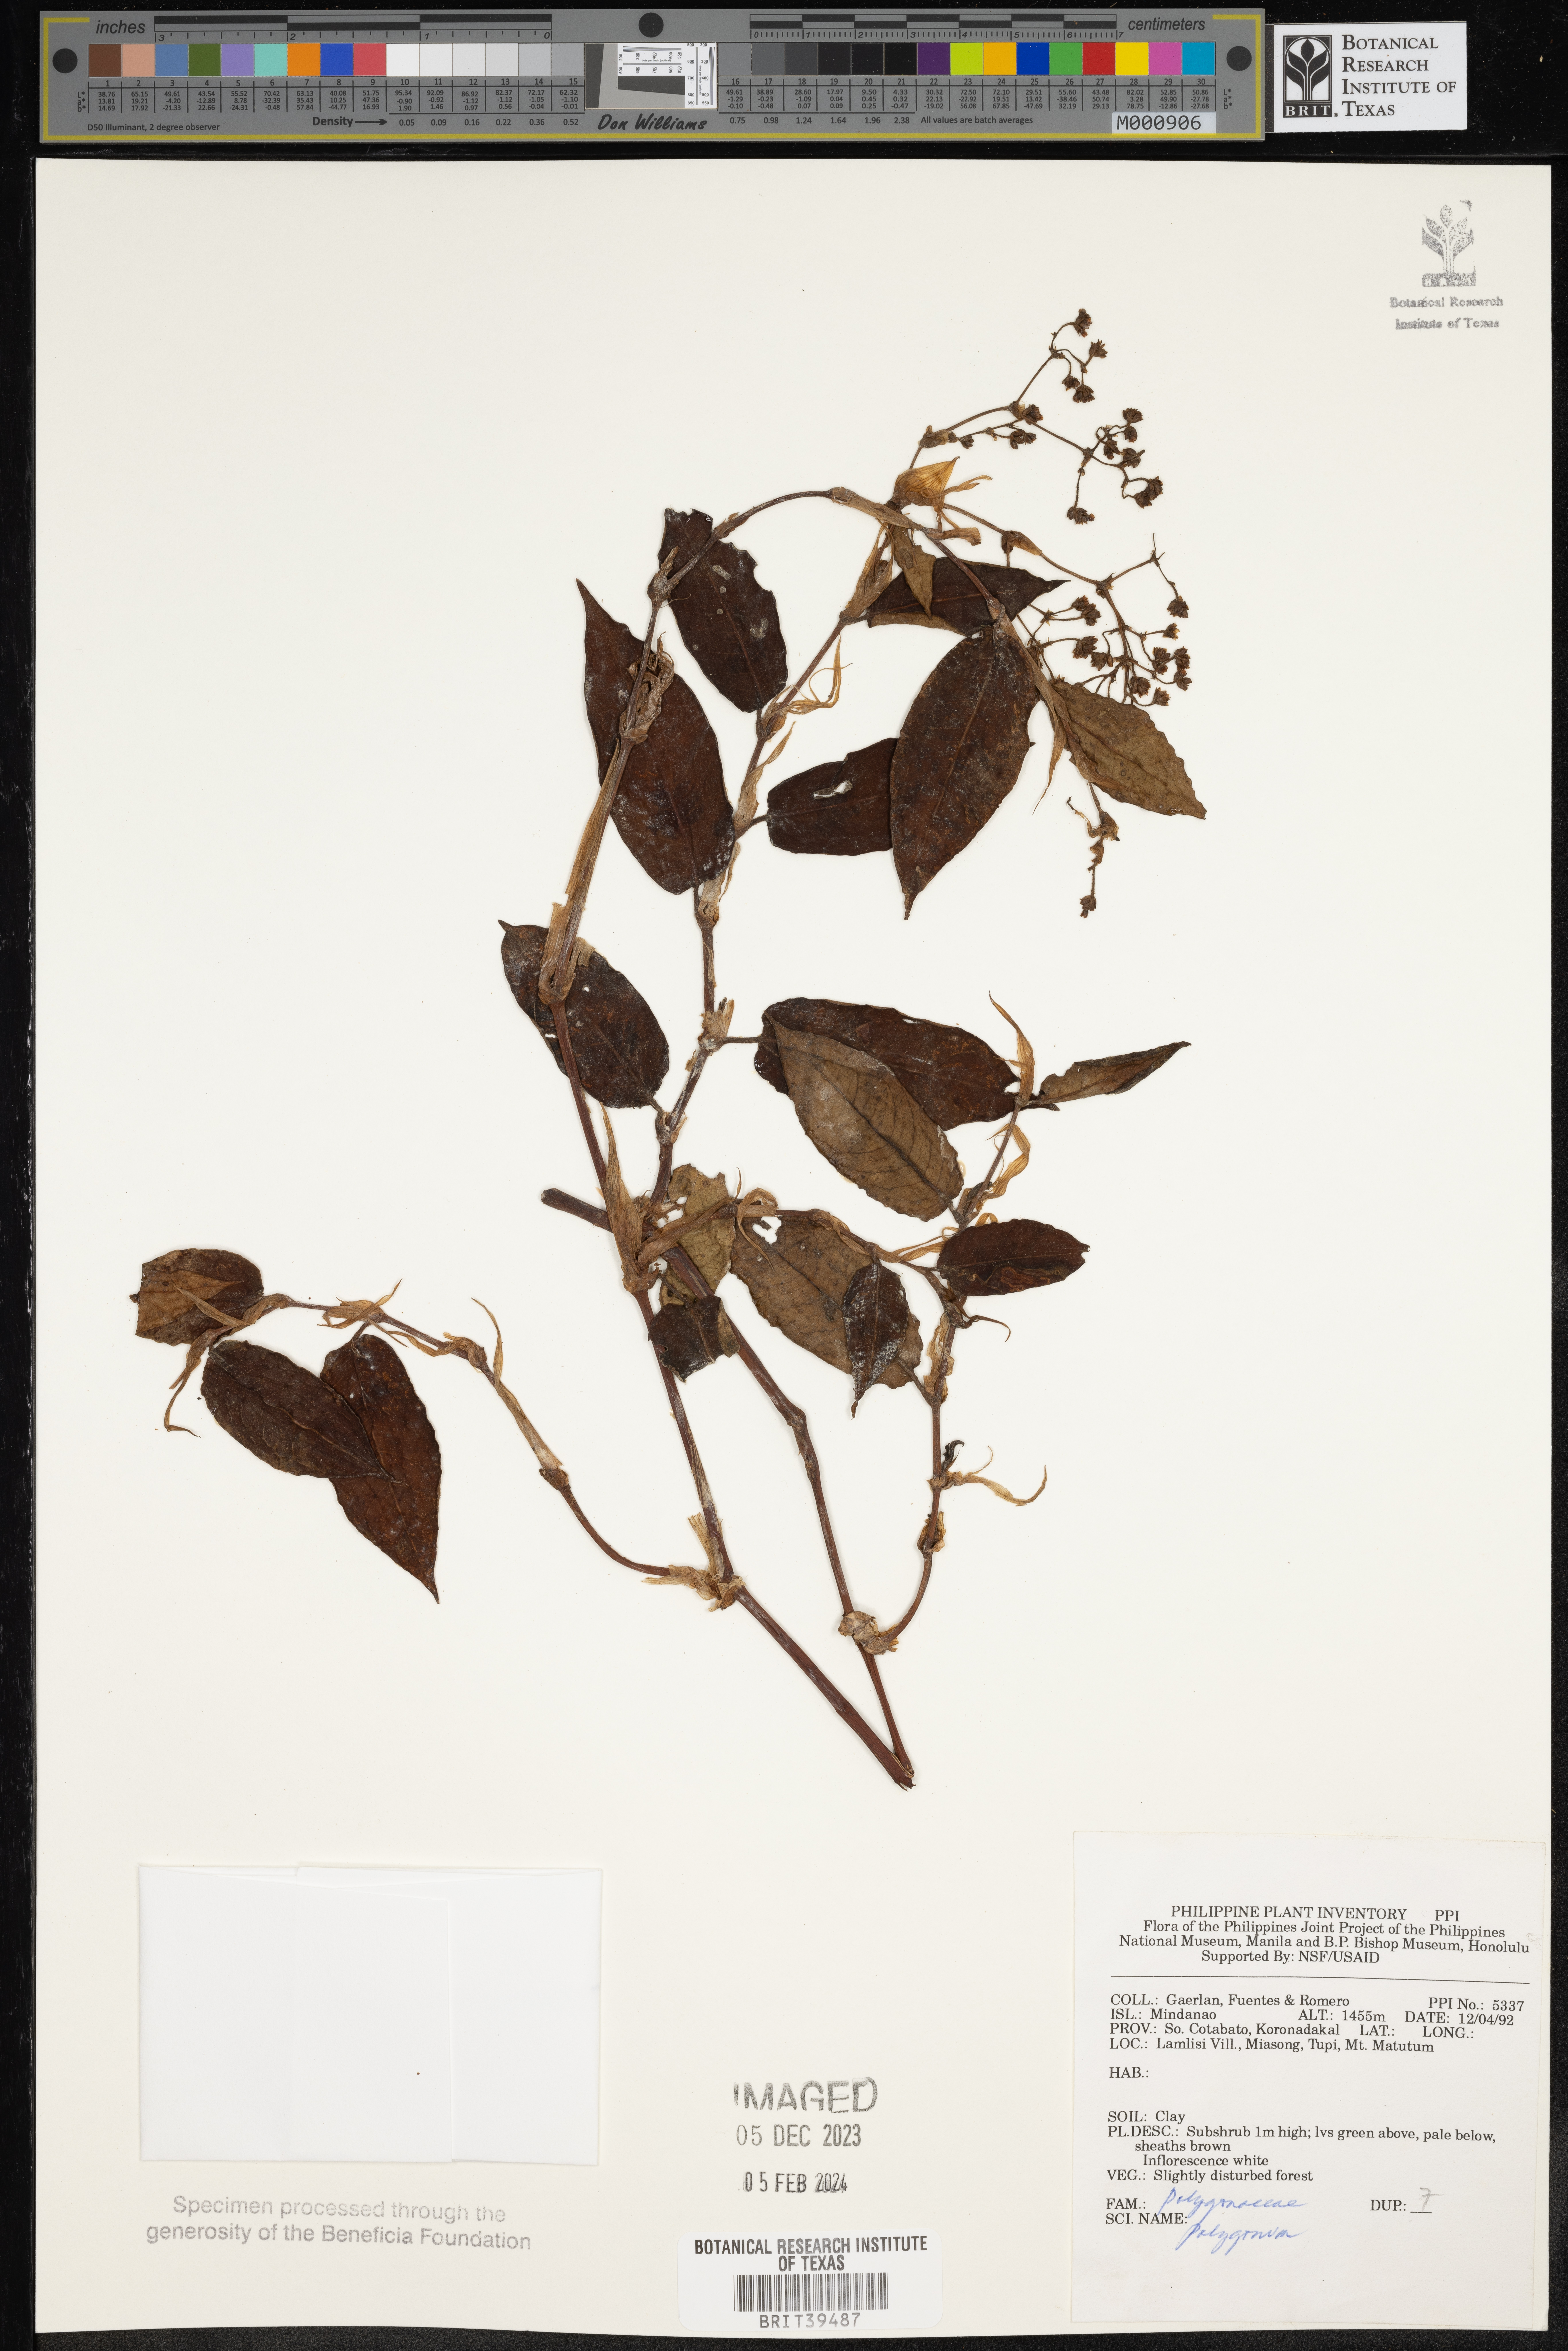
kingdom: Plantae
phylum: Tracheophyta
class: Magnoliopsida
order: Caryophyllales
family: Polygonaceae
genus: Polygonum
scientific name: Polygonum
